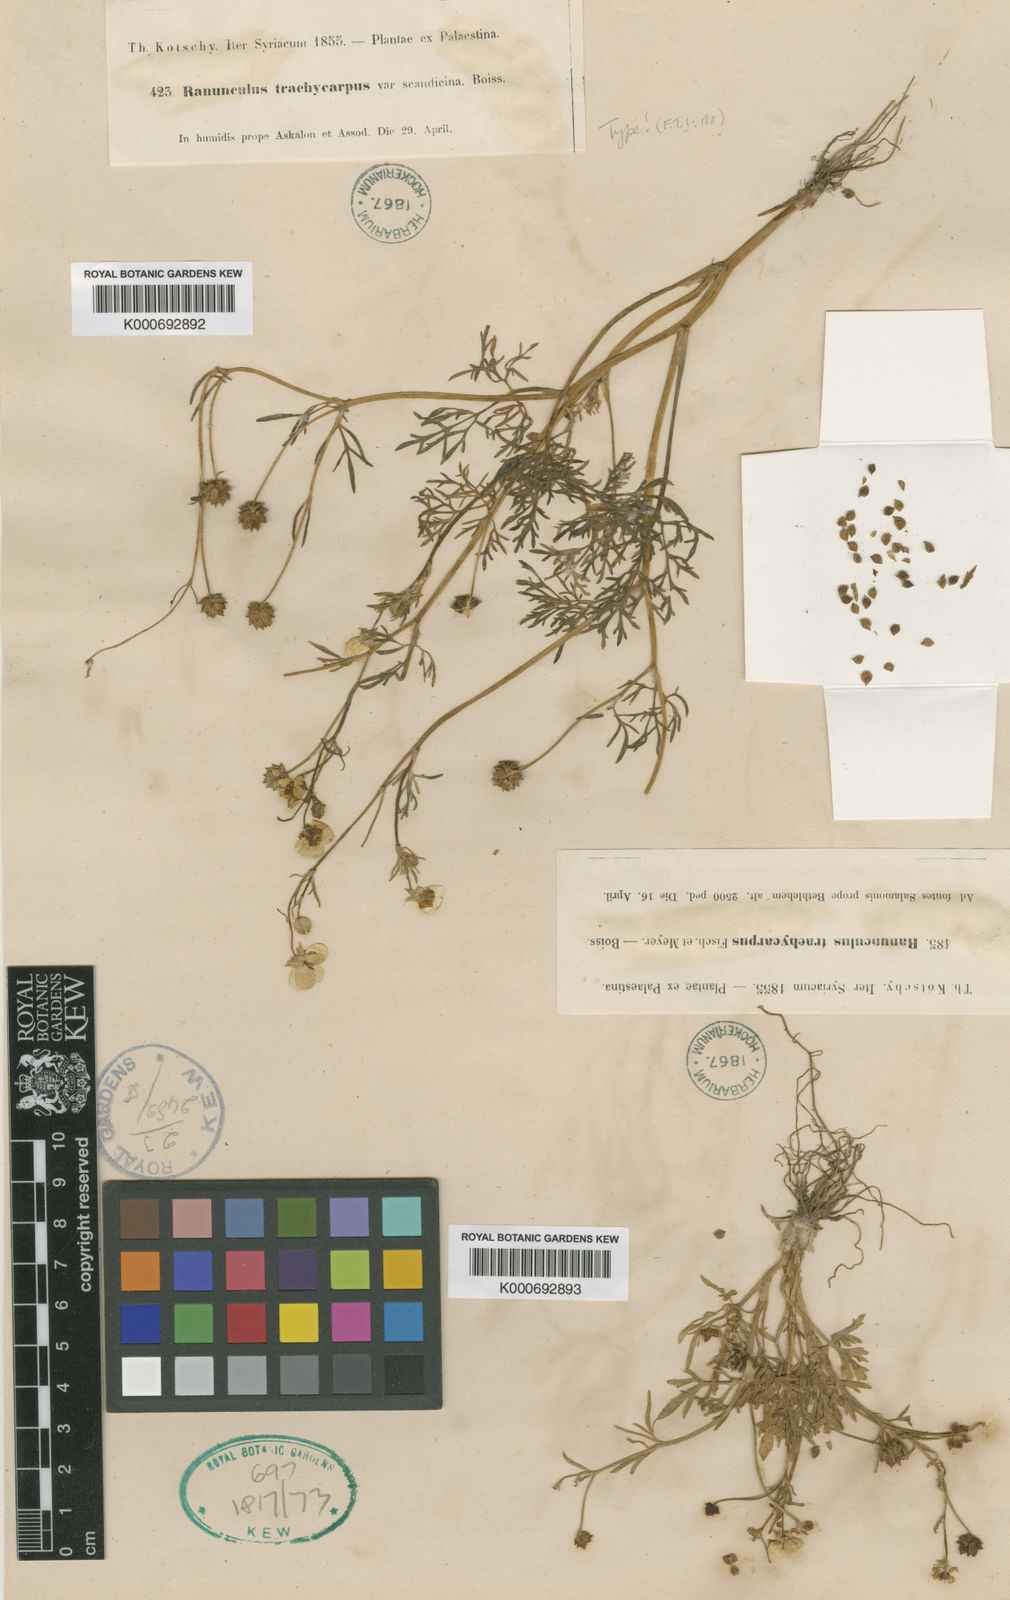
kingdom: Plantae
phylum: Tracheophyta
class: Magnoliopsida
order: Ranunculales
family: Ranunculaceae
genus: Ranunculus
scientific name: Ranunculus cornutus
